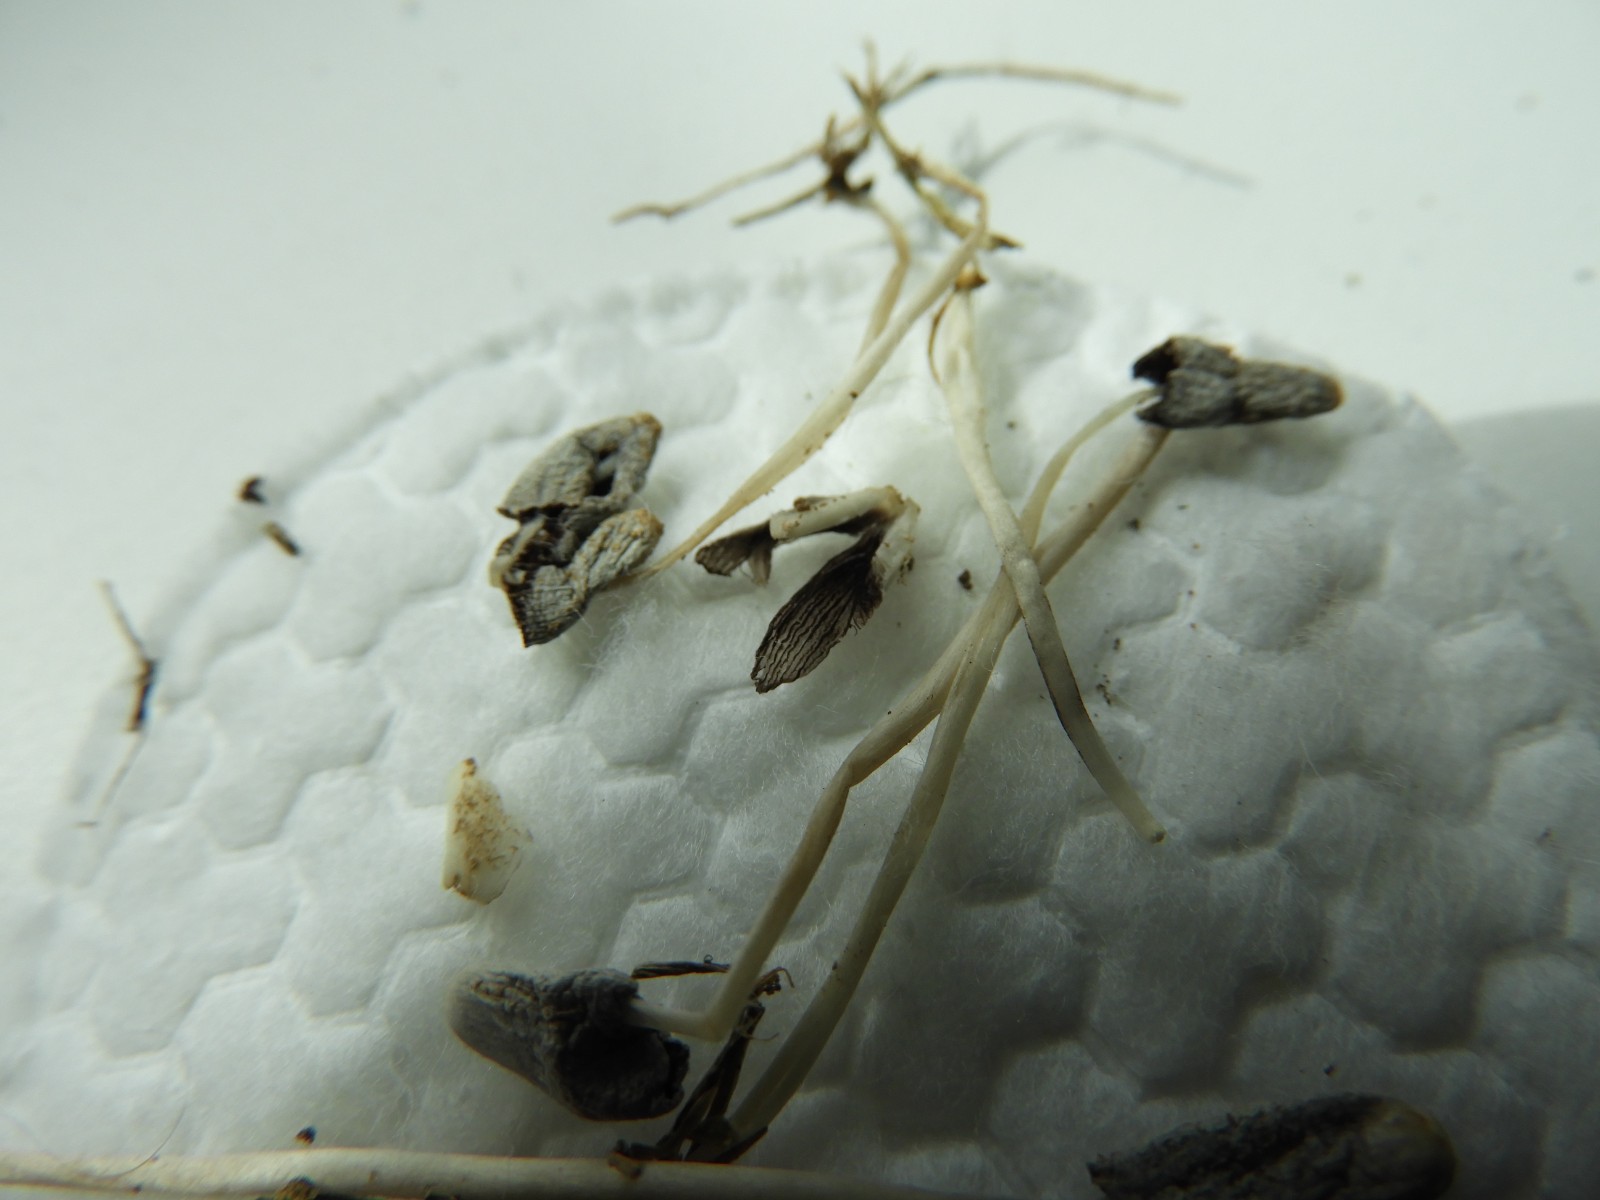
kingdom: Fungi
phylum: Basidiomycota
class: Agaricomycetes
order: Agaricales
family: Psathyrellaceae
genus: Coprinopsis
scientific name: Coprinopsis friesii
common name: græs-blækhat
